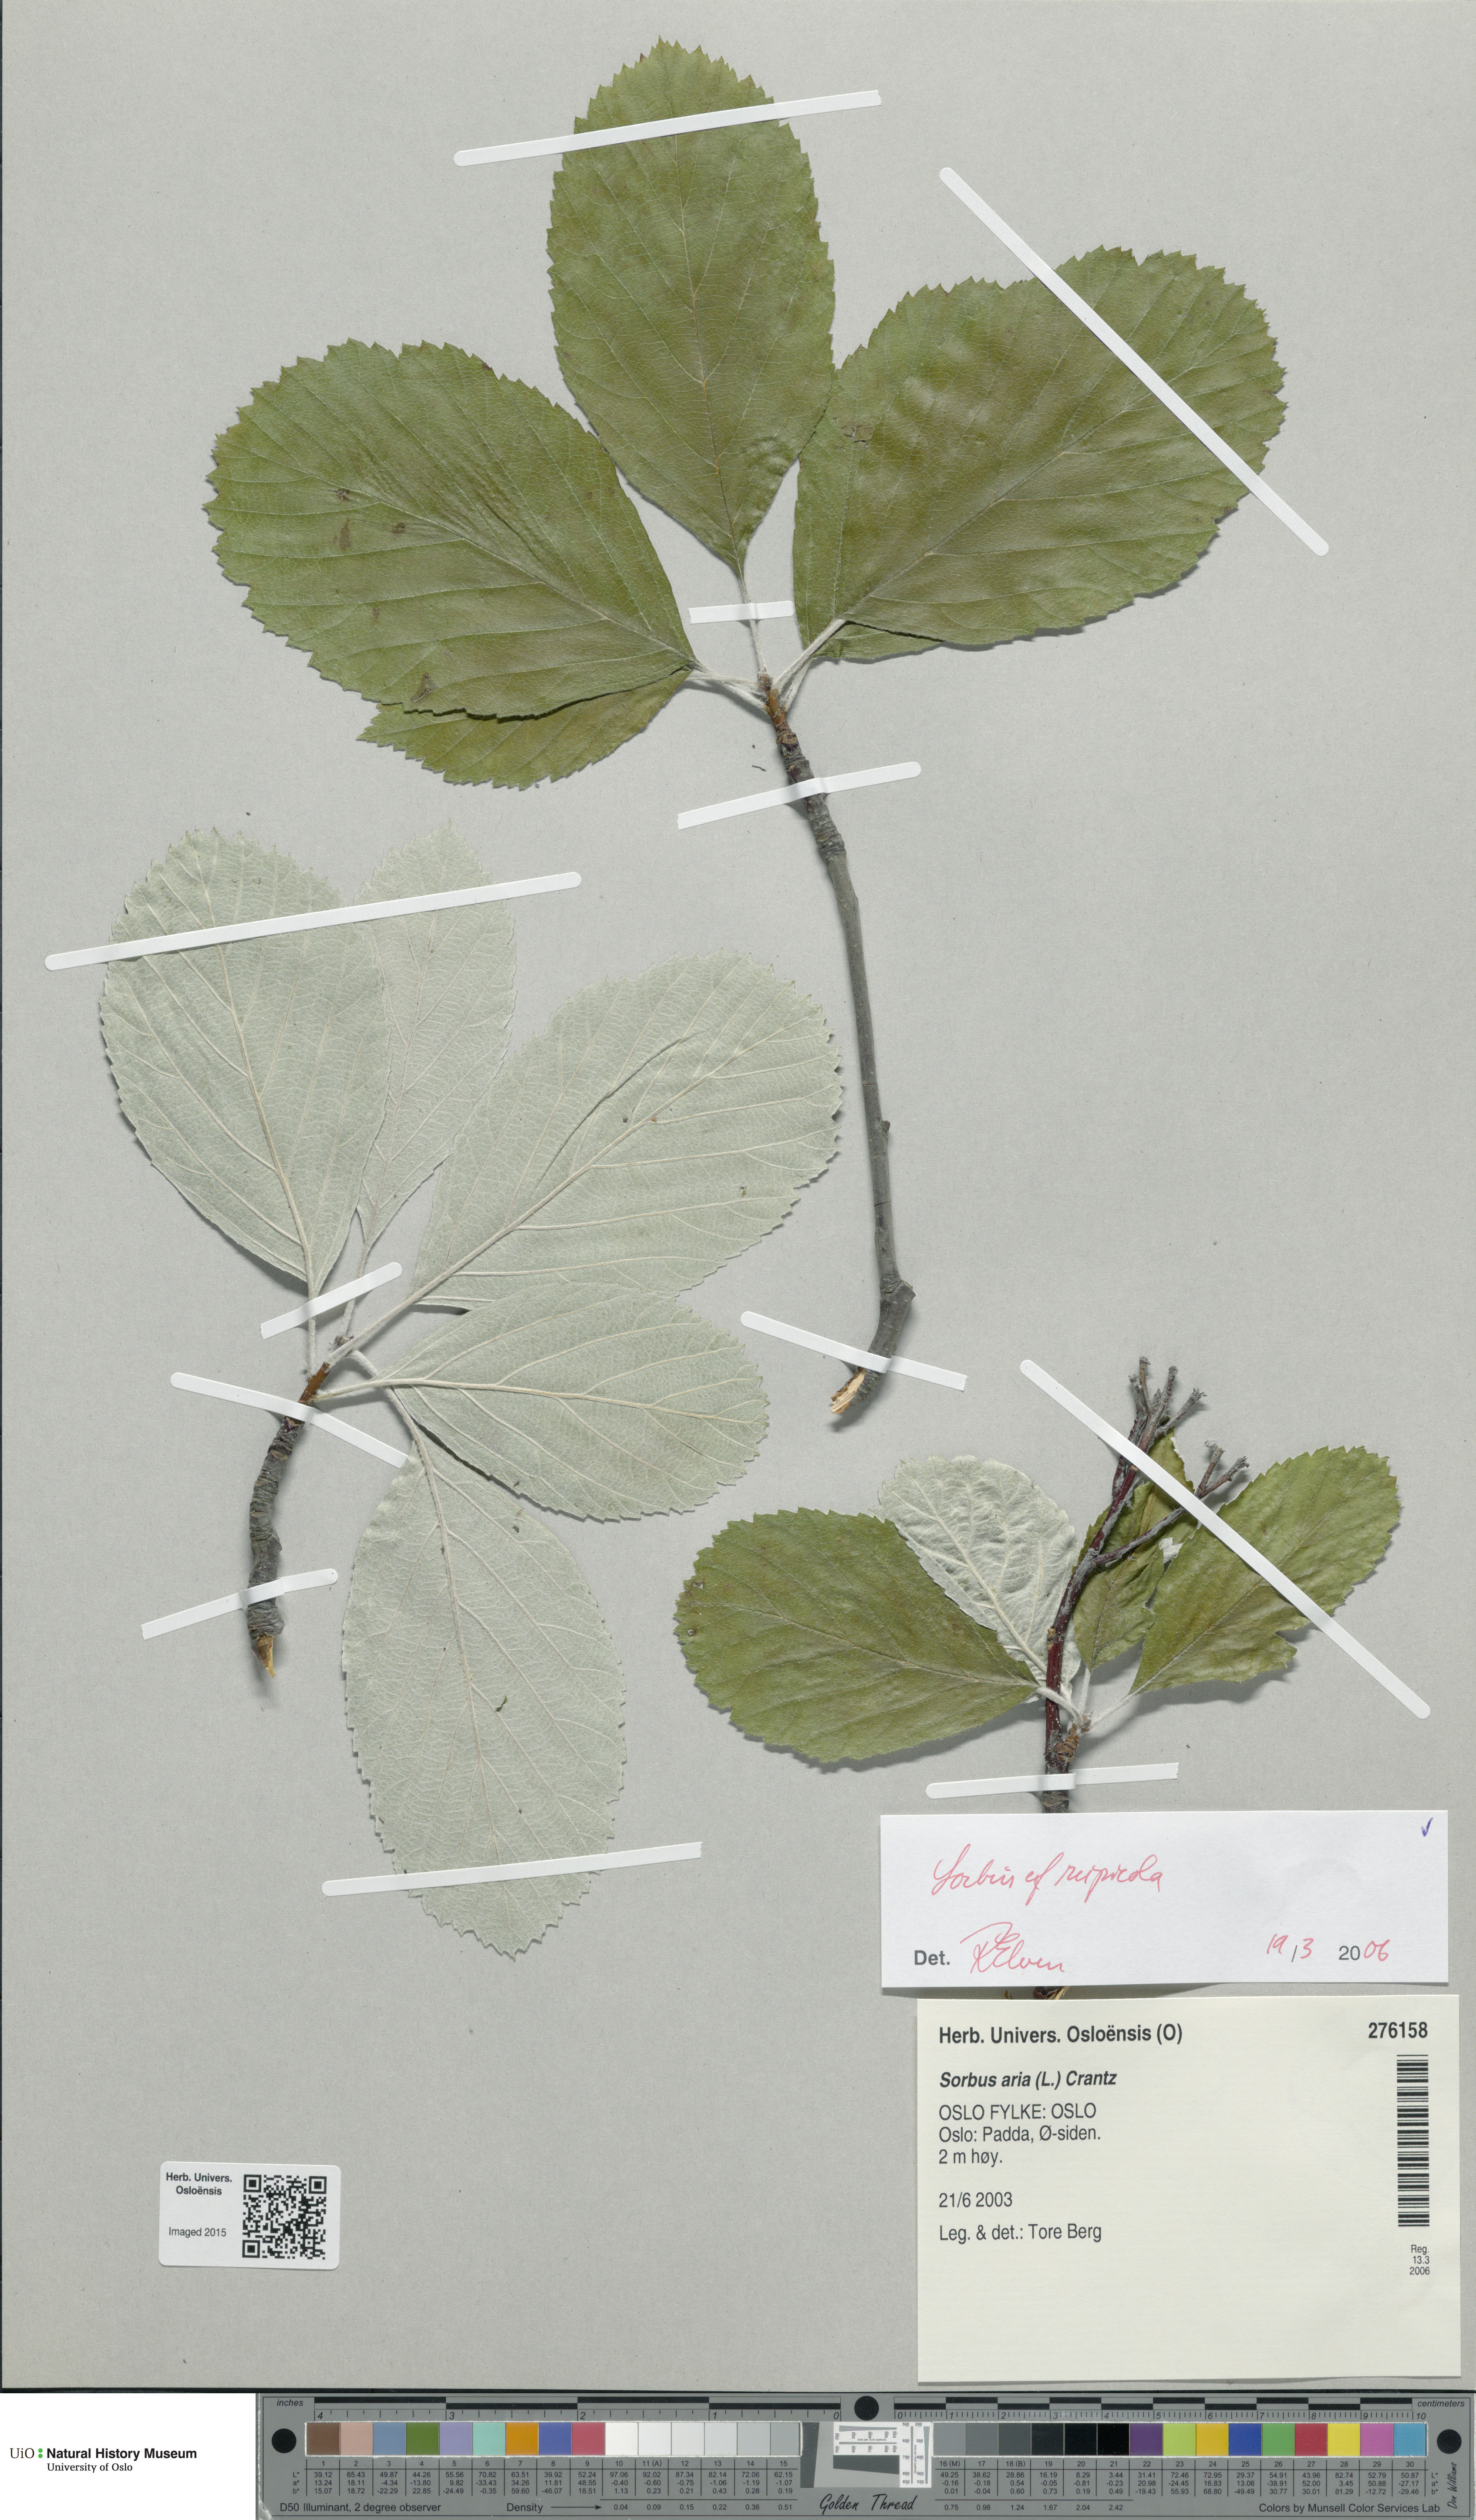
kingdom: Plantae
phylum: Tracheophyta
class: Magnoliopsida
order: Rosales
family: Rosaceae
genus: Aria
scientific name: Aria rupicola
